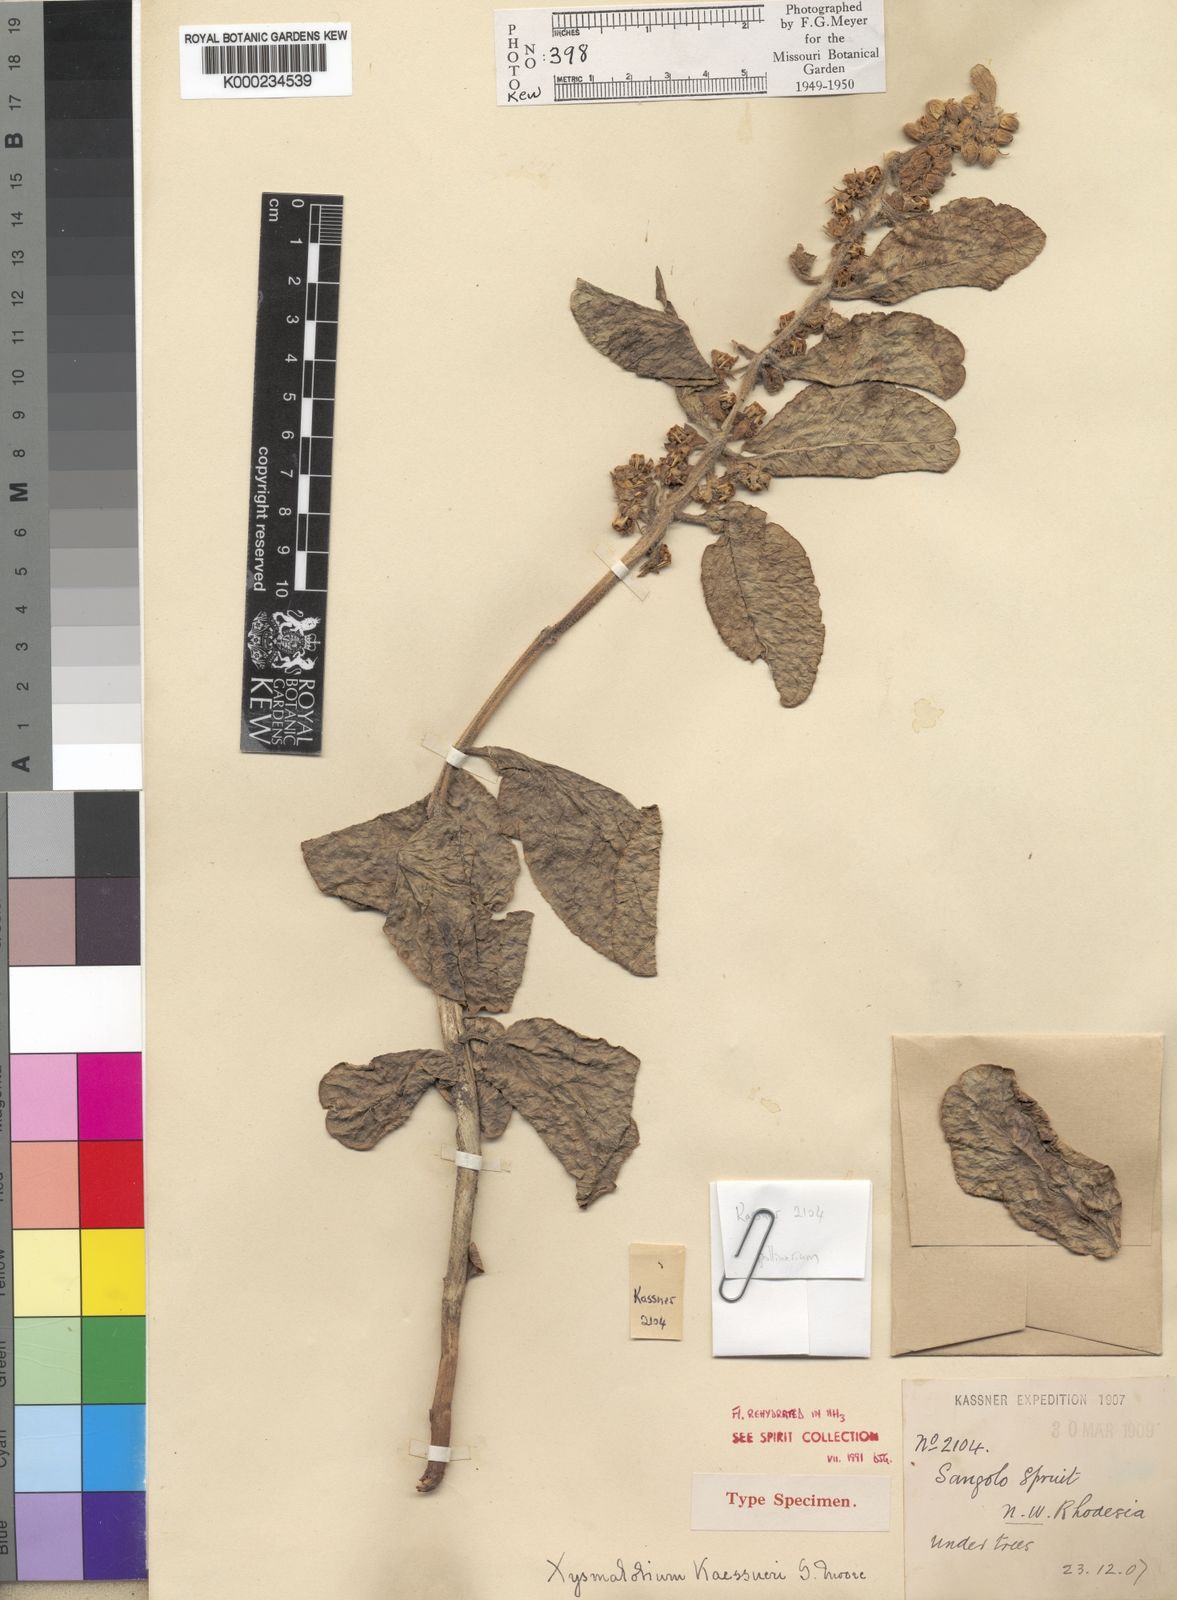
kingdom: Plantae
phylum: Tracheophyta
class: Magnoliopsida
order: Gentianales
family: Apocynaceae
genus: Xysmalobium
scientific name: Xysmalobium kaessneri
